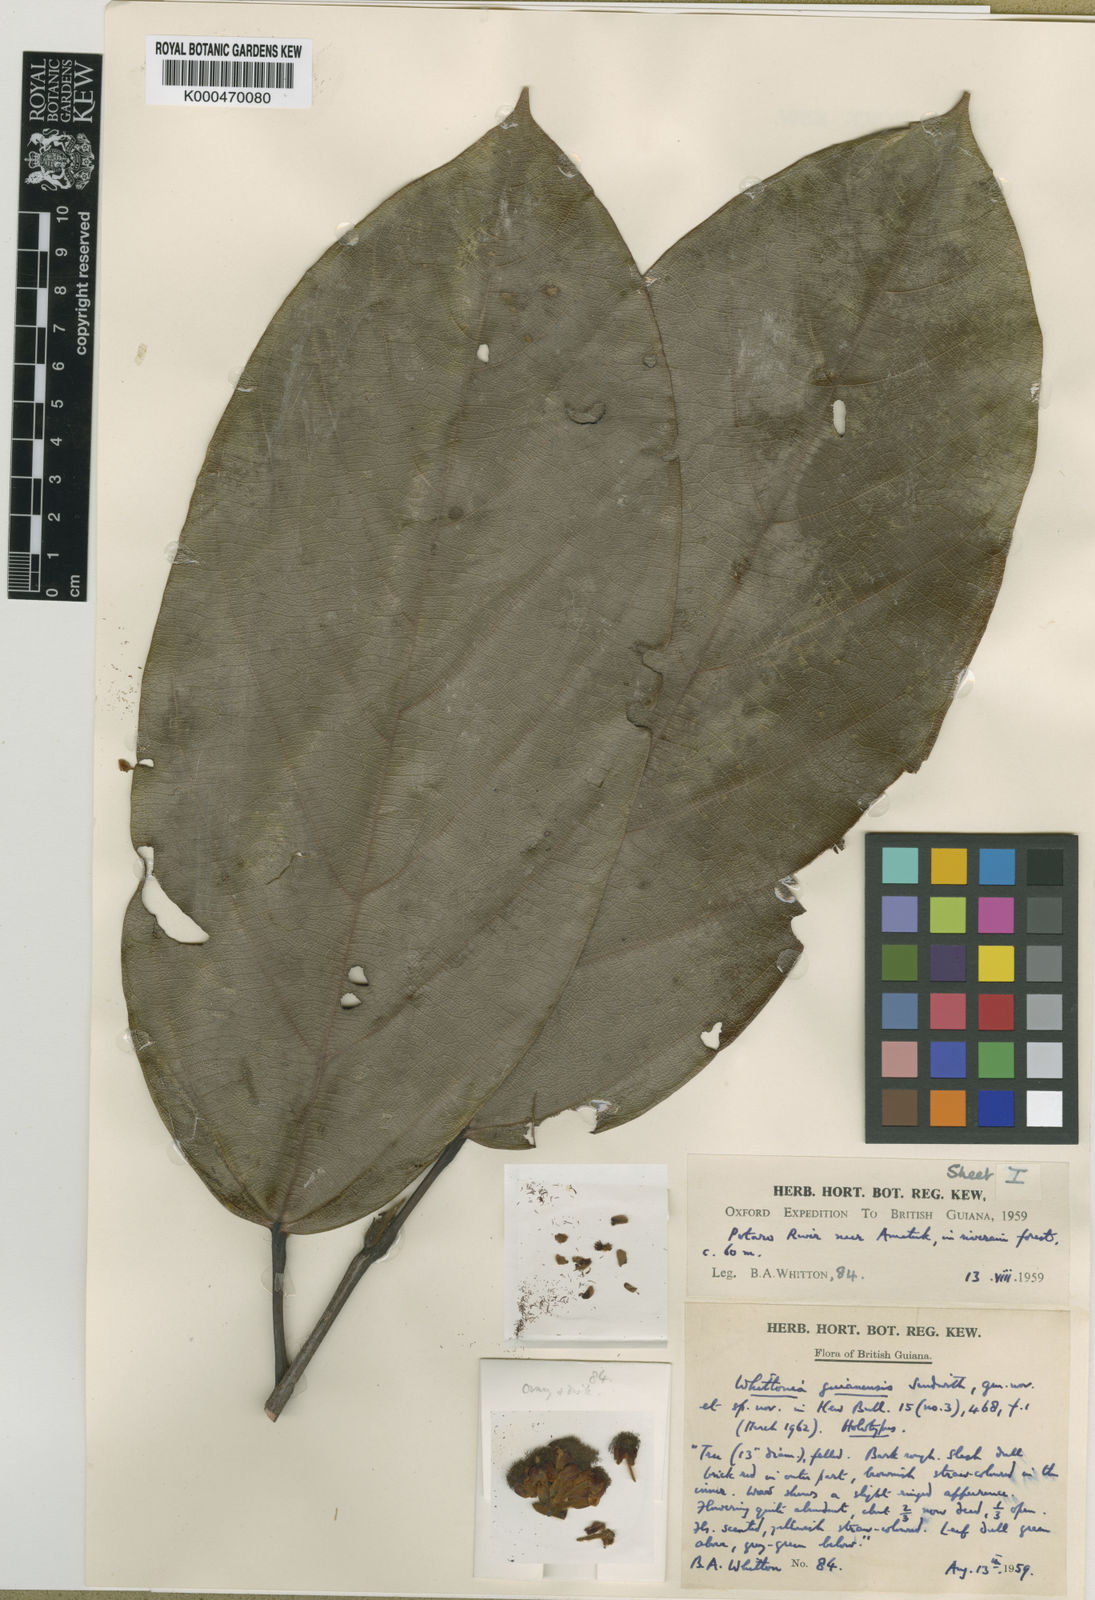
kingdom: Plantae
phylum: Tracheophyta
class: Magnoliopsida
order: Saxifragales
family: Peridiscaceae
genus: Whittonia
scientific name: Whittonia guianensis
